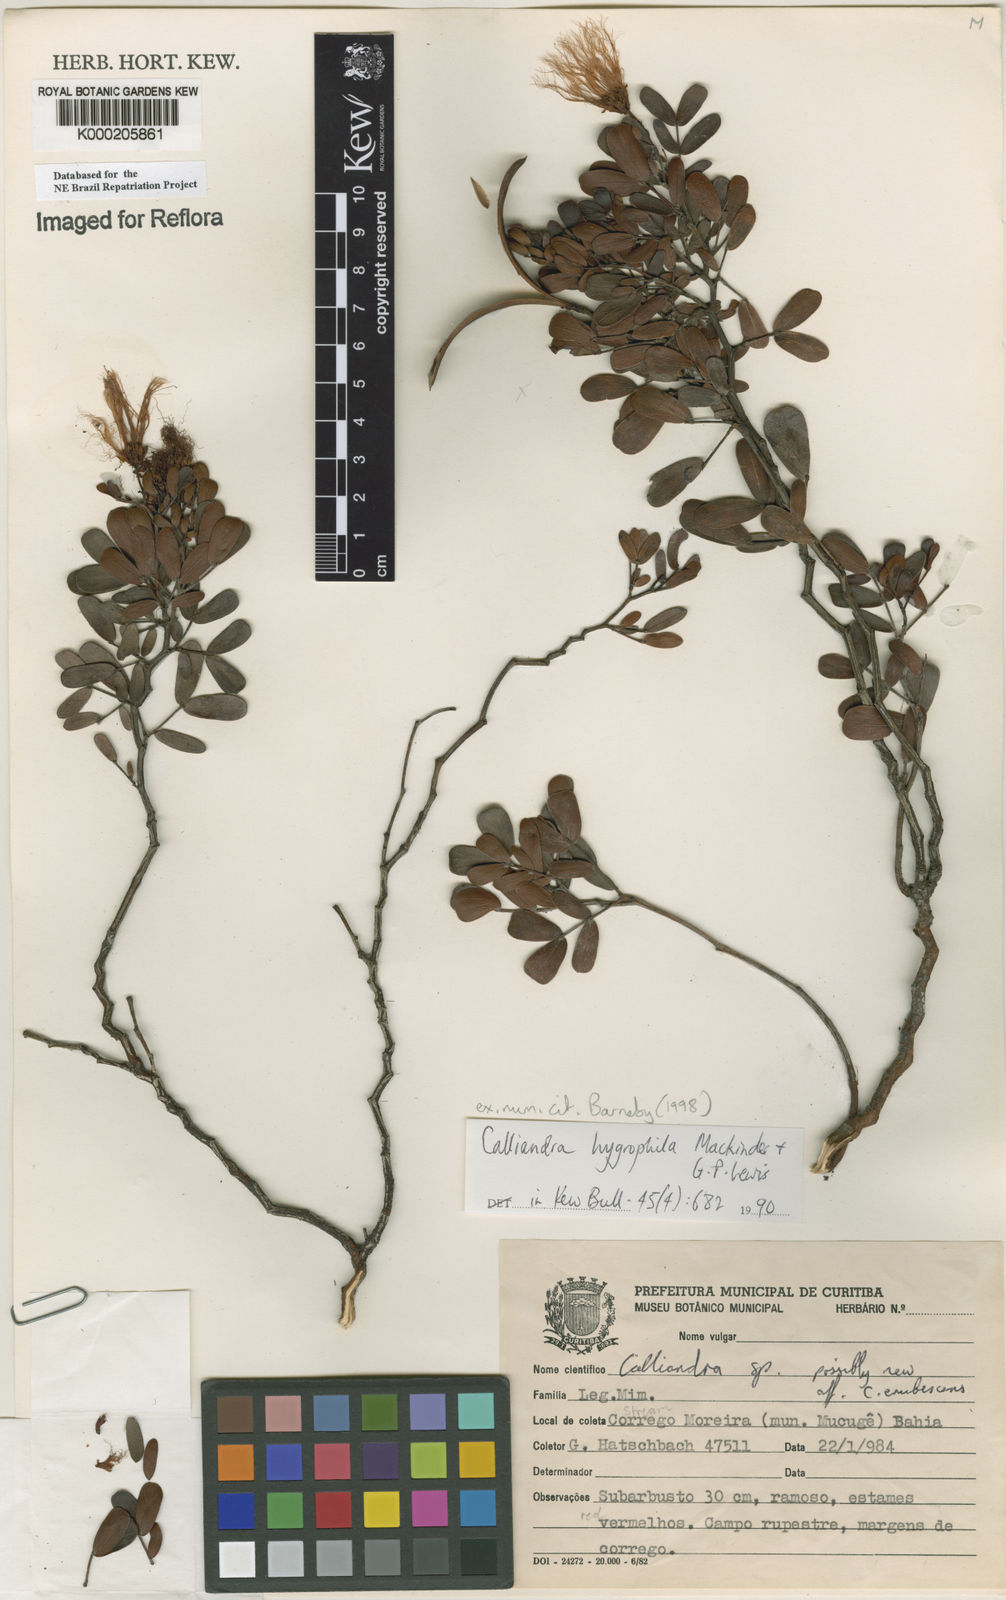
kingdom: Plantae
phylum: Tracheophyta
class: Magnoliopsida
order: Fabales
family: Fabaceae
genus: Calliandra
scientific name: Calliandra hygrophila
